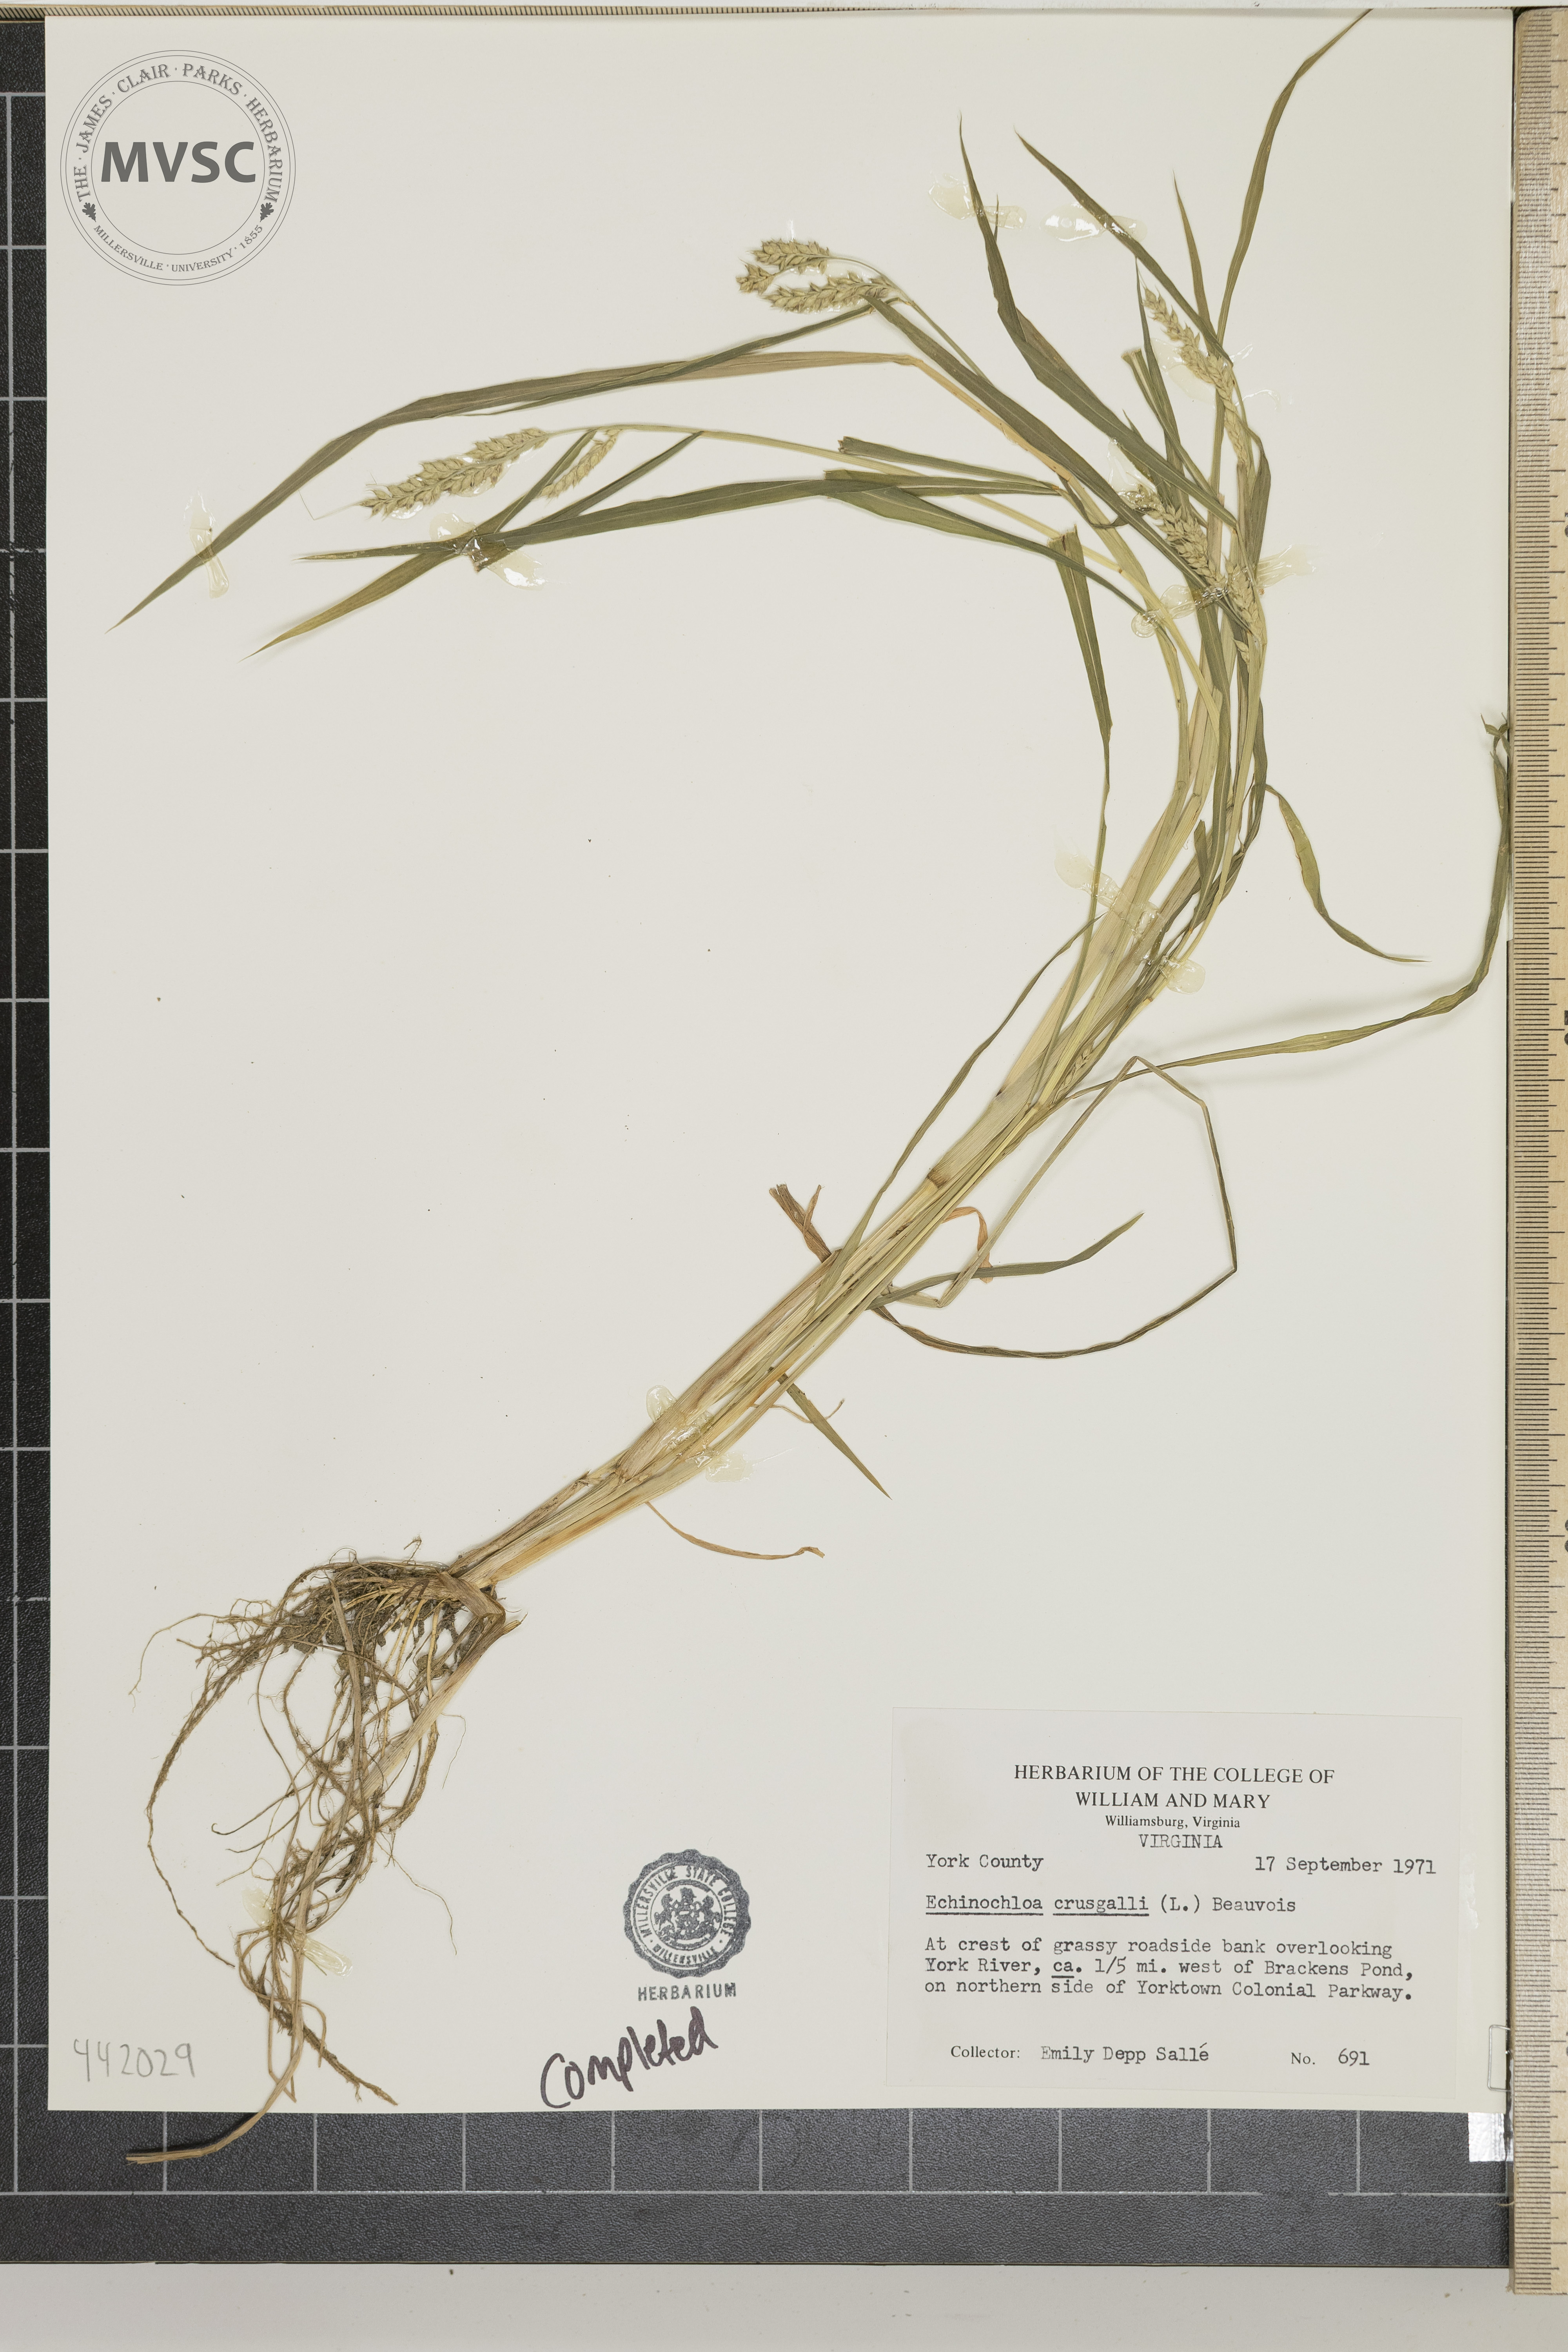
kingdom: Plantae
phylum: Tracheophyta
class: Liliopsida
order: Poales
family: Poaceae
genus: Echinochloa
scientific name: Echinochloa crus-galli
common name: Cockspur
